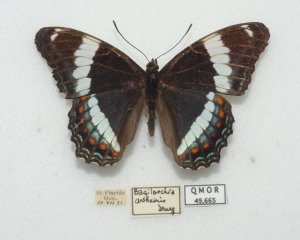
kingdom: Animalia
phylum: Arthropoda
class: Insecta
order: Lepidoptera
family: Nymphalidae
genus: Limenitis
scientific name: Limenitis arthemis
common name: Red-spotted Admiral
